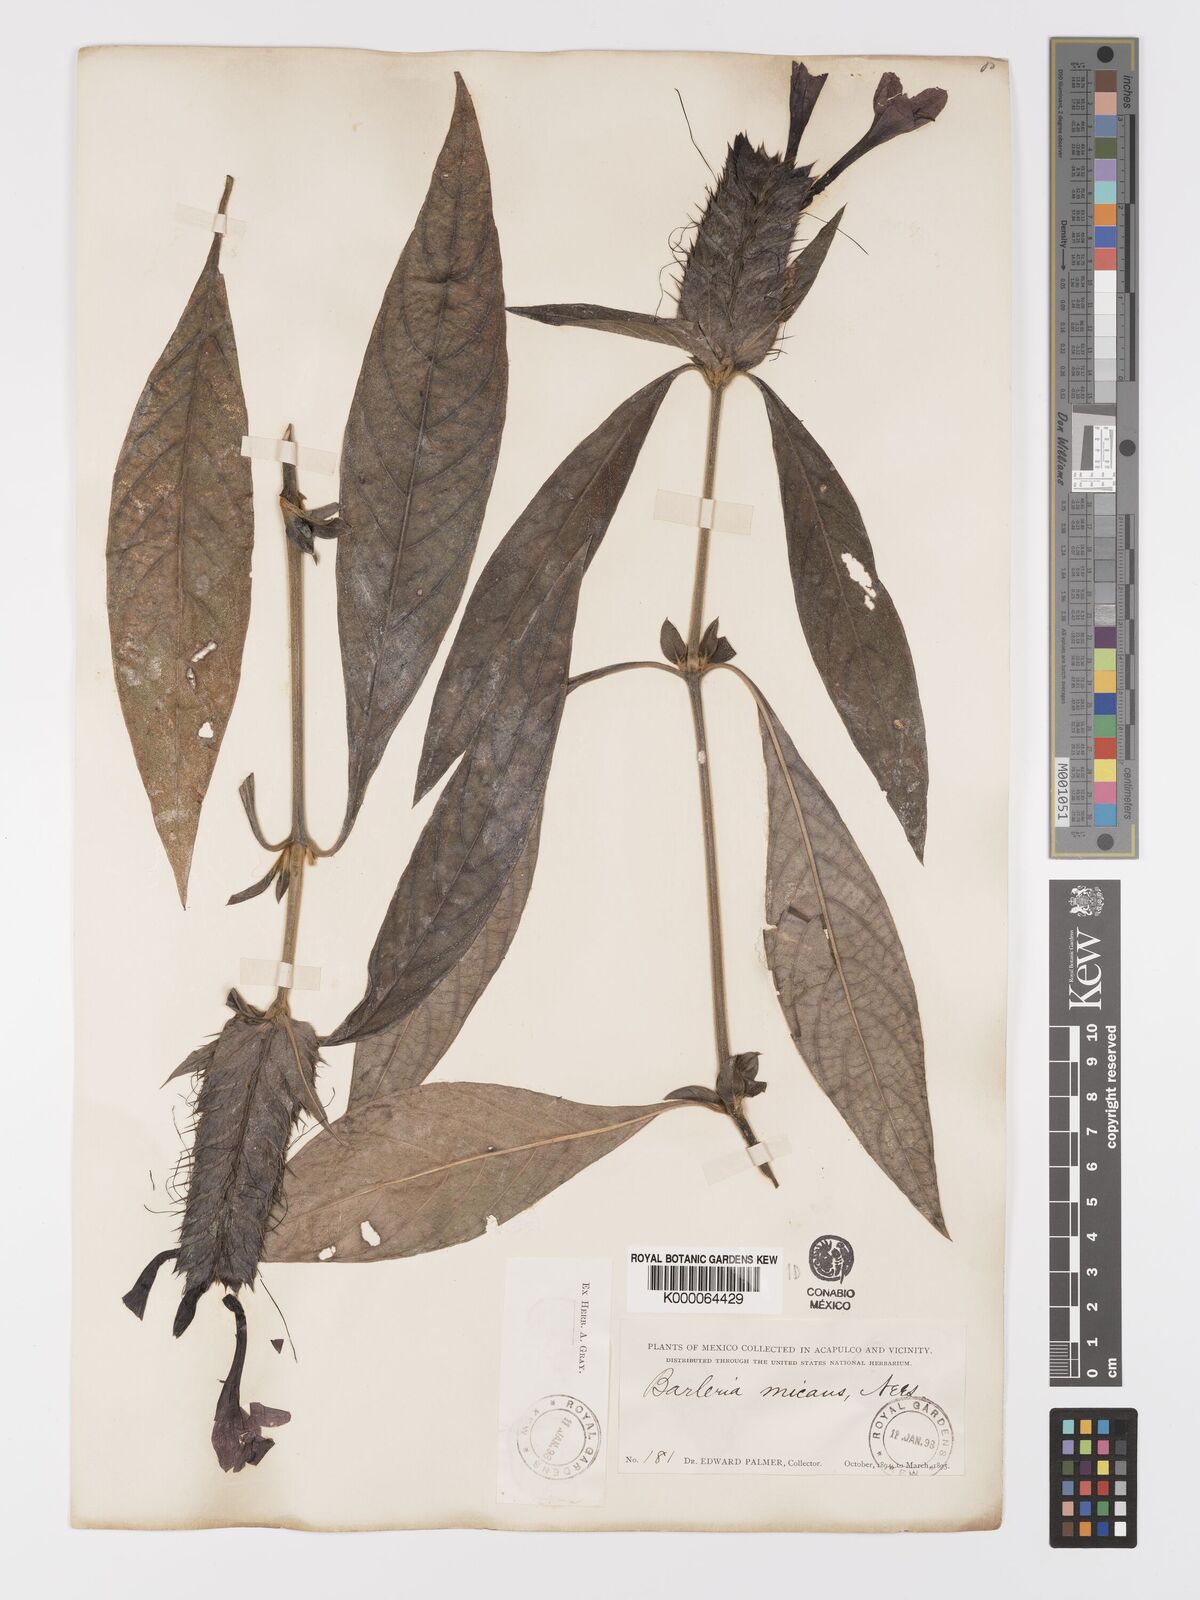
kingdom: Plantae
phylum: Tracheophyta
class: Magnoliopsida
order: Lamiales
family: Acanthaceae
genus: Barleria
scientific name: Barleria oenotheroides
